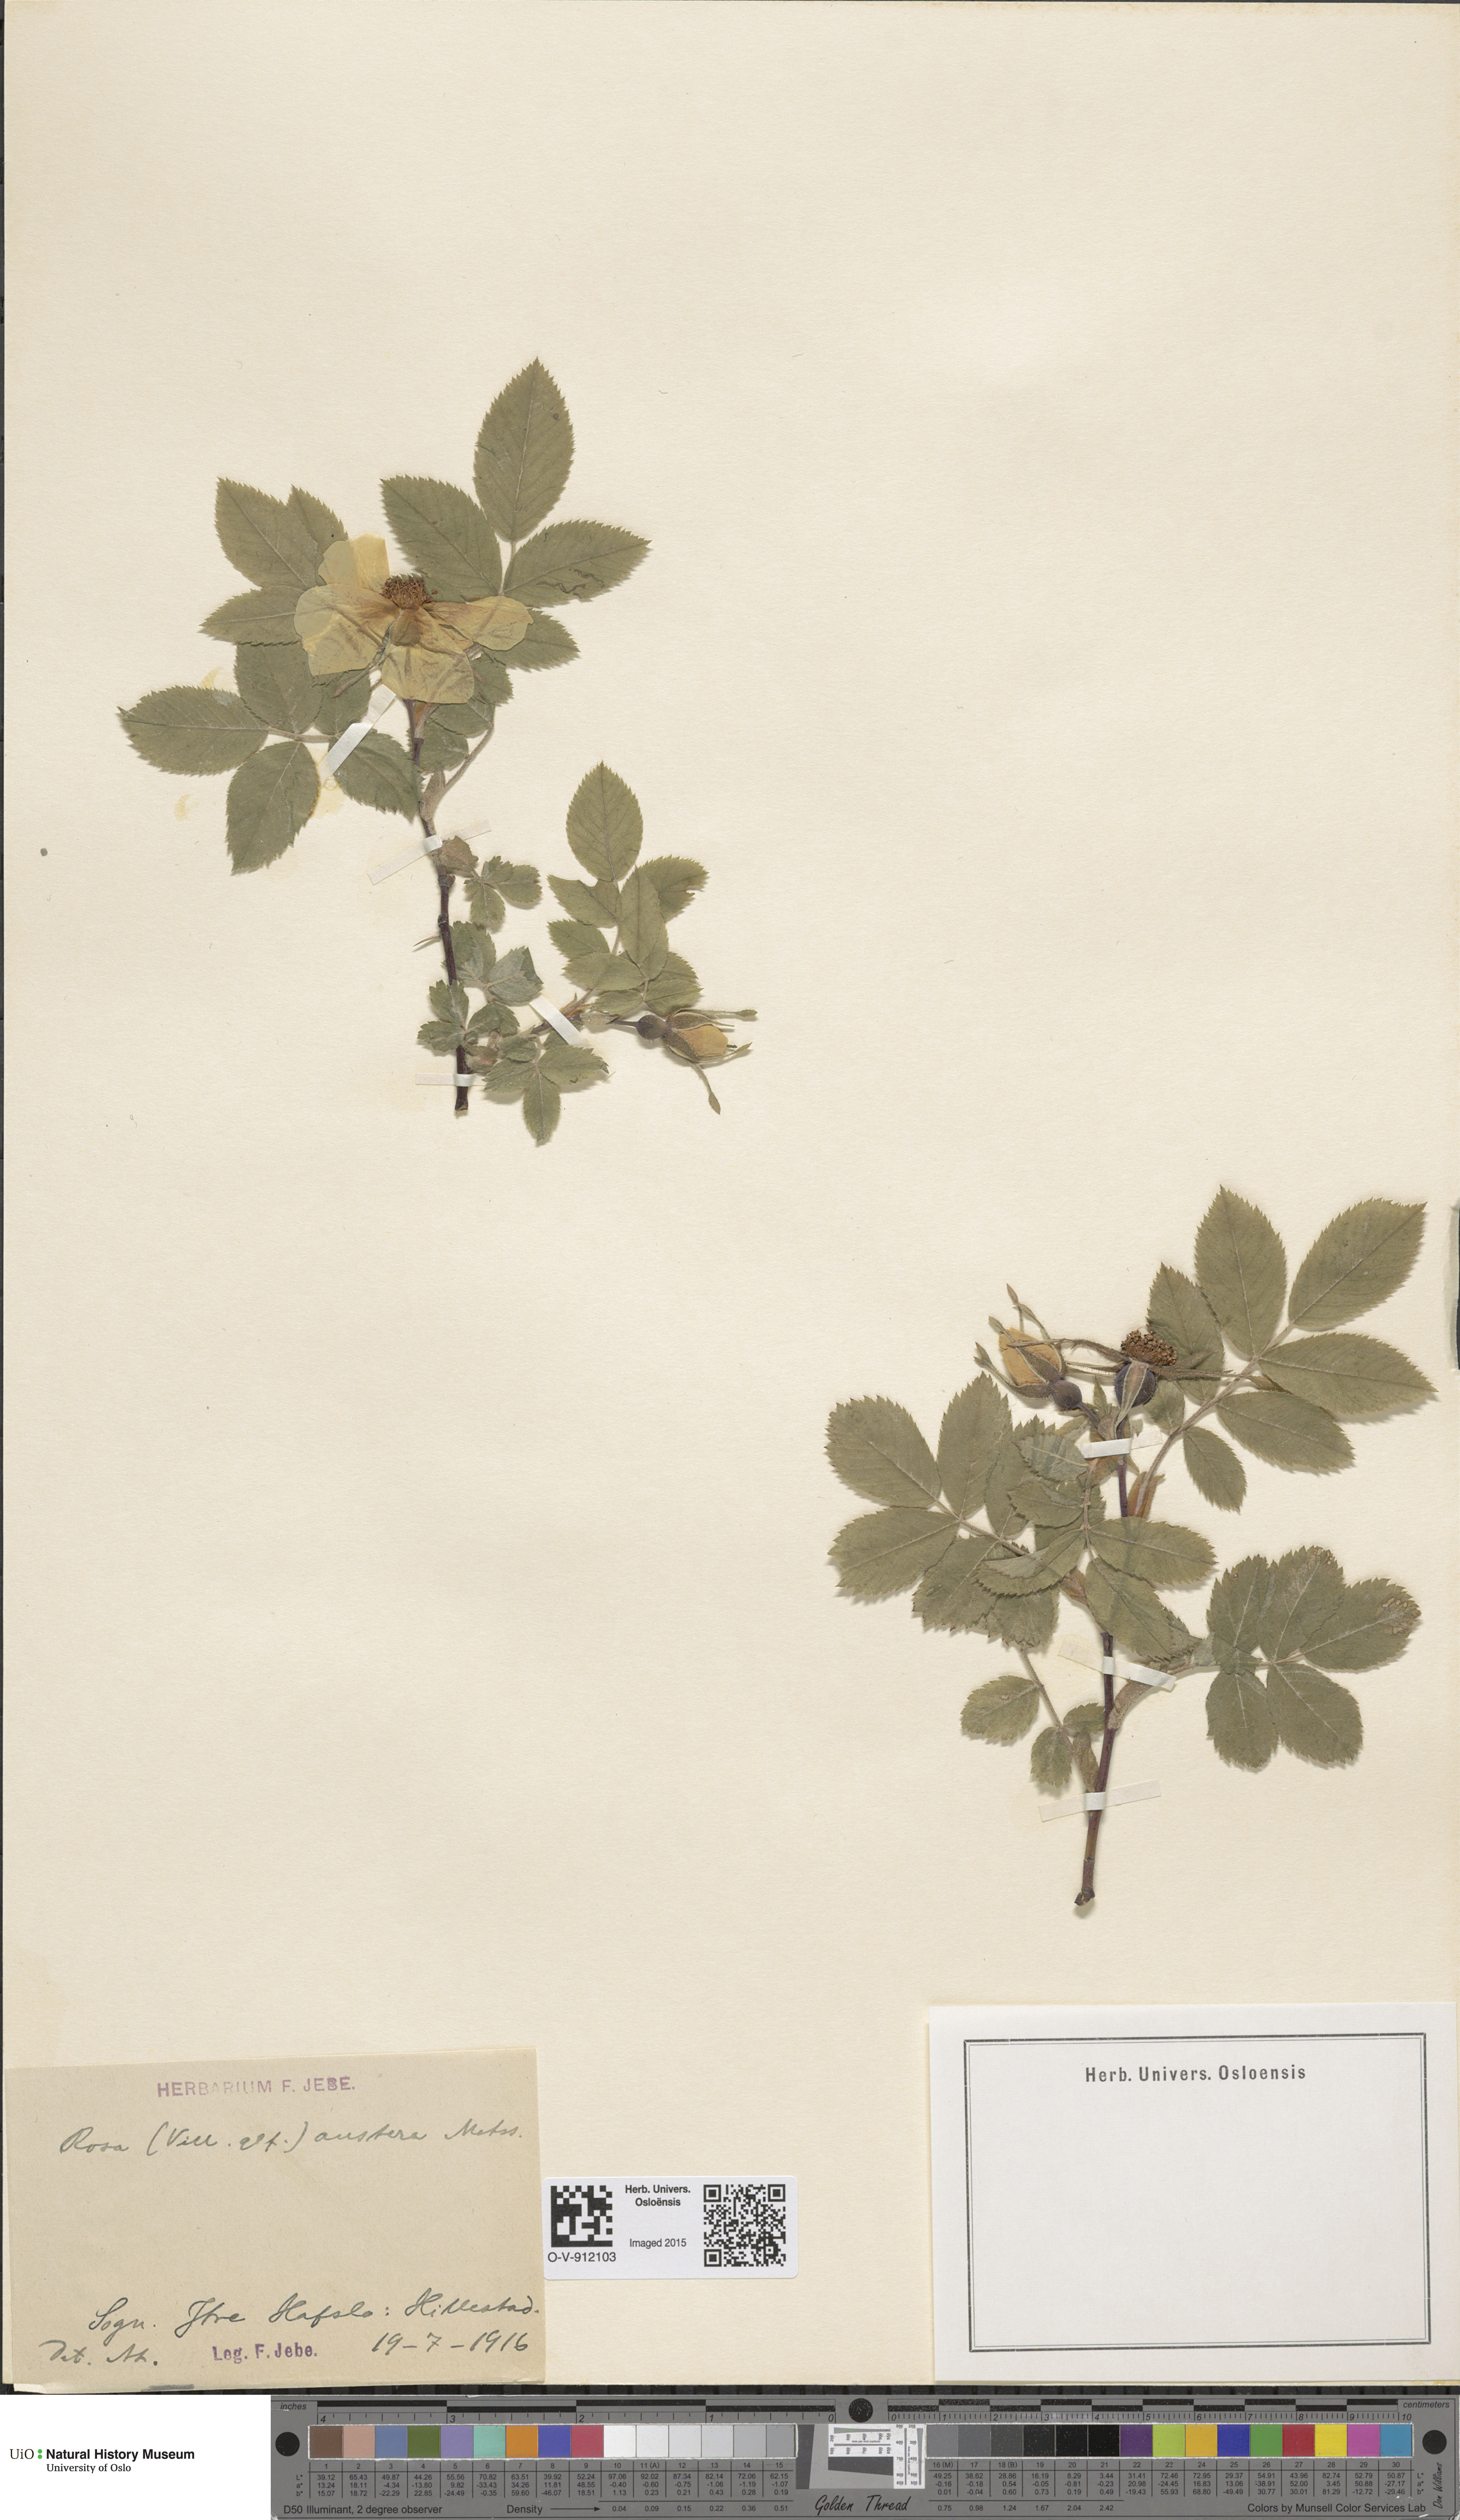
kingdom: Plantae
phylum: Tracheophyta
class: Magnoliopsida
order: Rosales
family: Rosaceae
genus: Rosa
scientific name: Rosa mollis
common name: Rose
